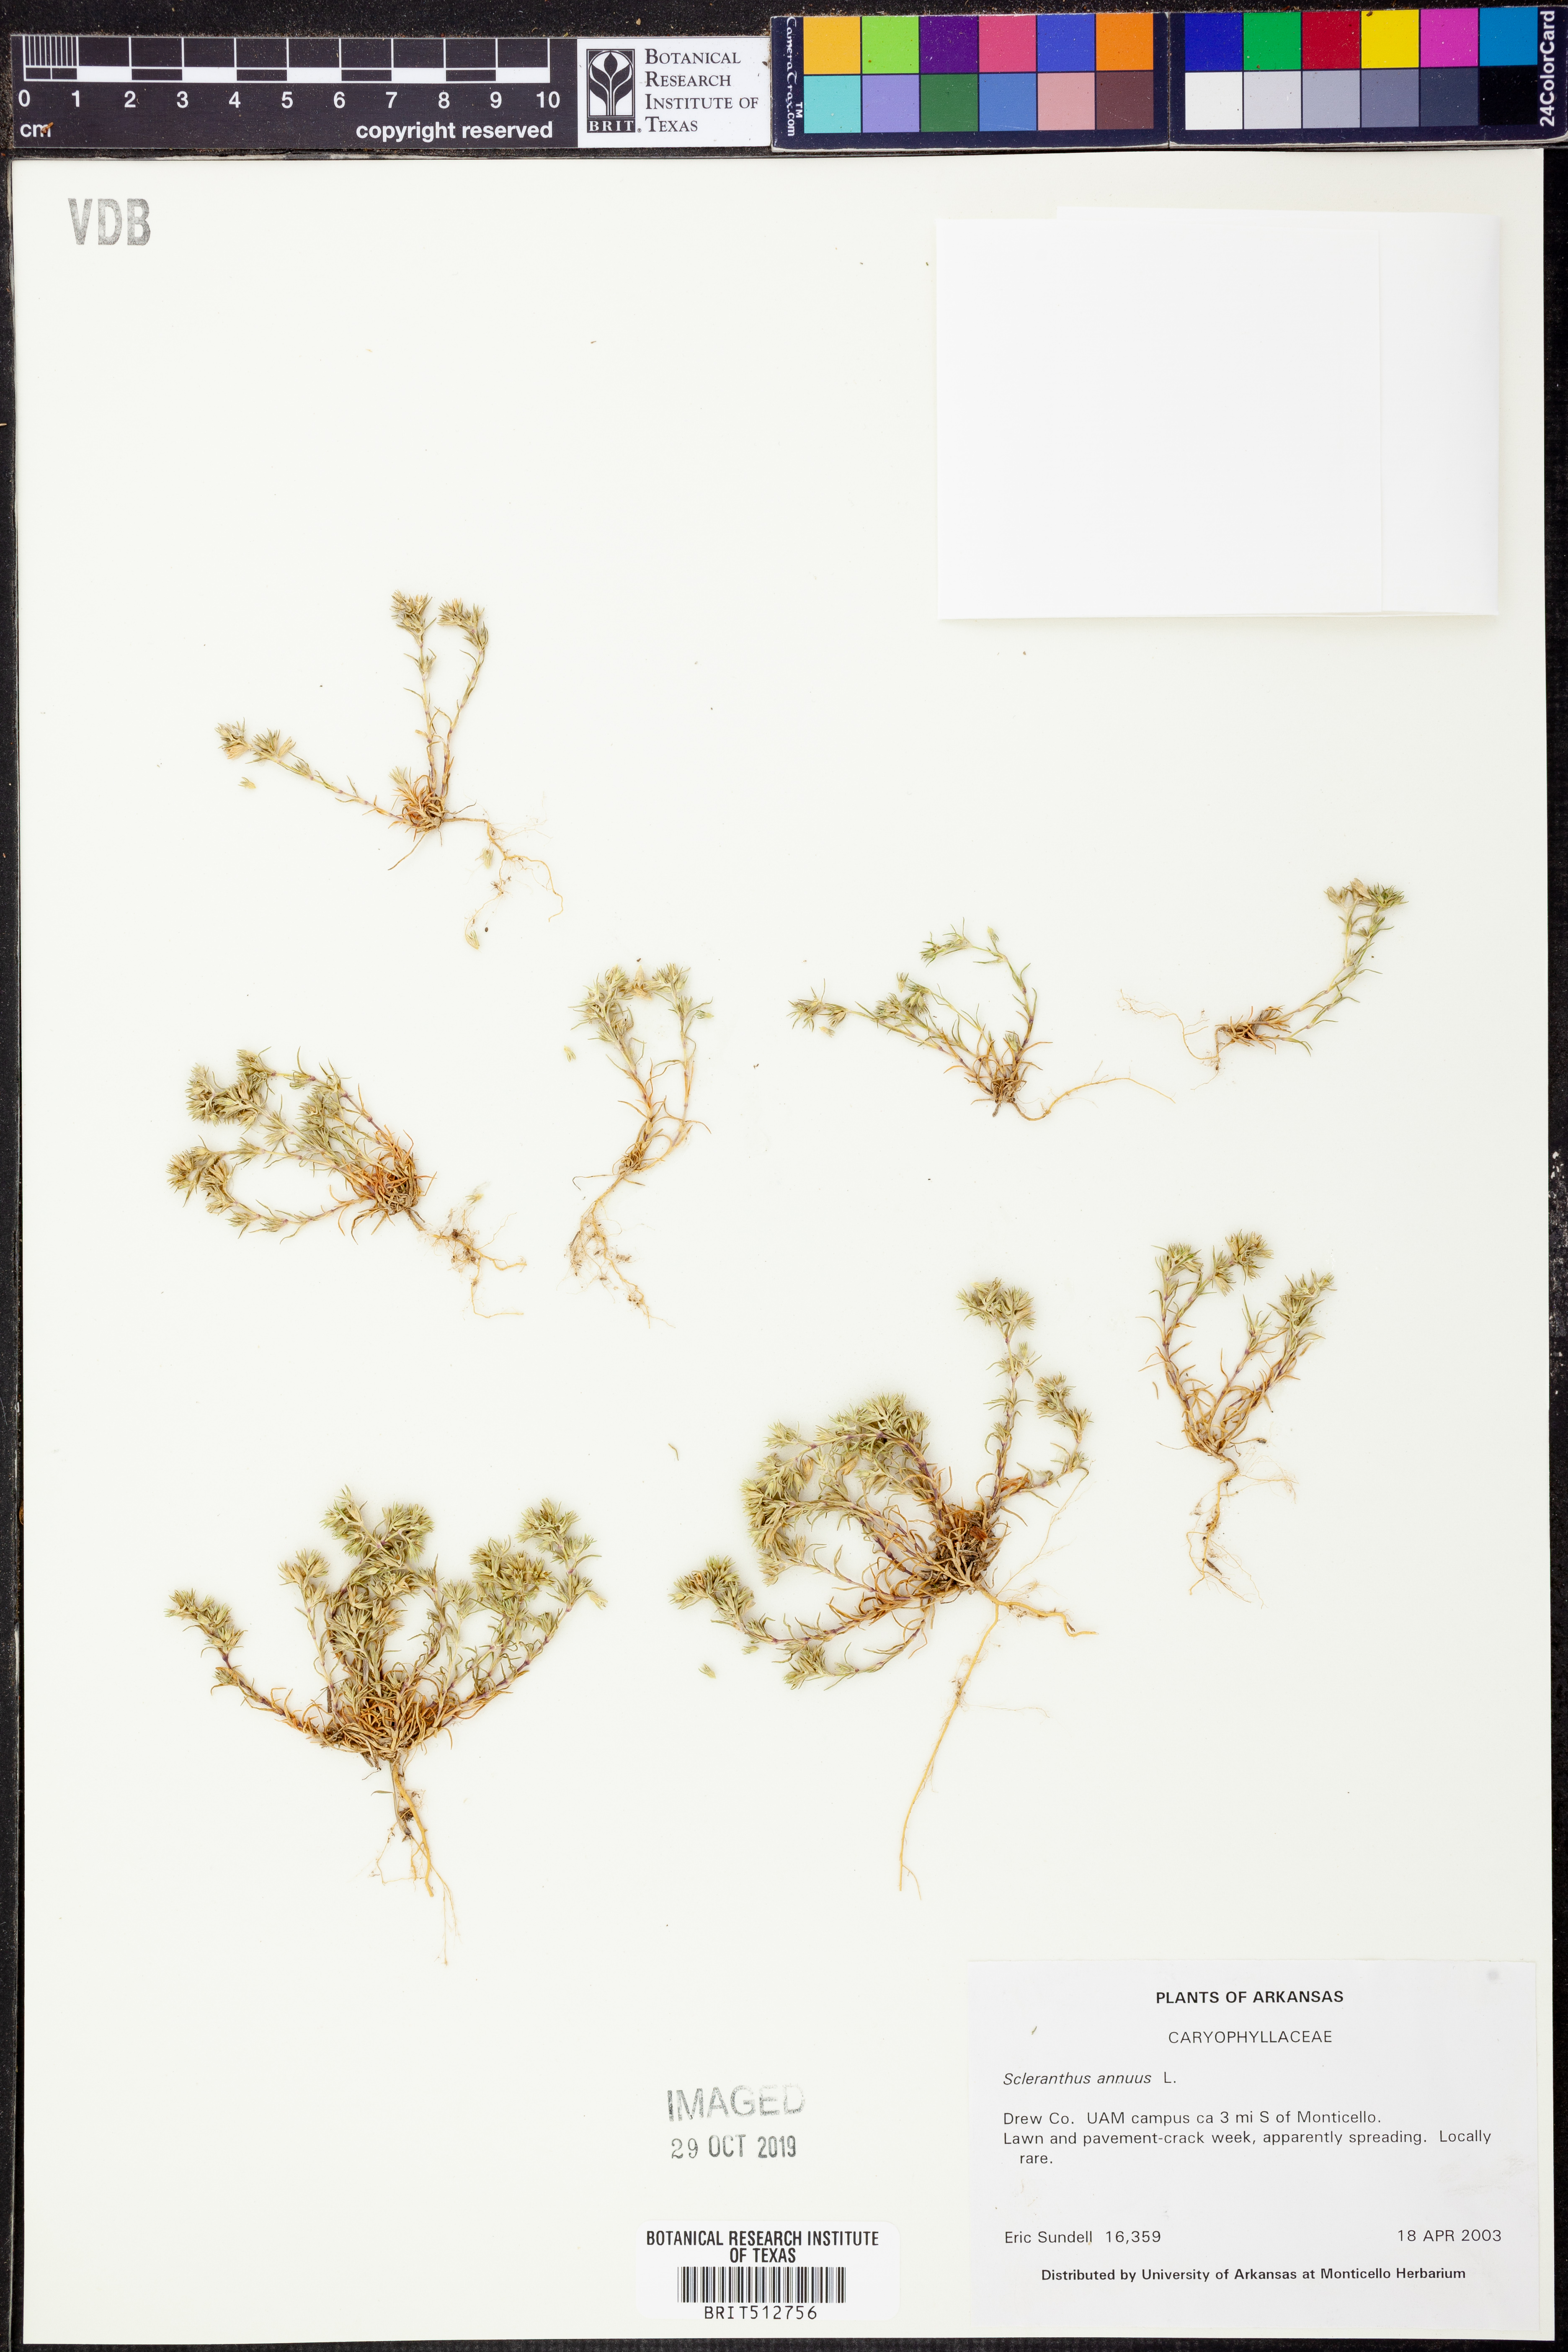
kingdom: Plantae
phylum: Tracheophyta
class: Magnoliopsida
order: Caryophyllales
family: Caryophyllaceae
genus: Scleranthus
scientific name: Scleranthus annuus
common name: Annual knawel
